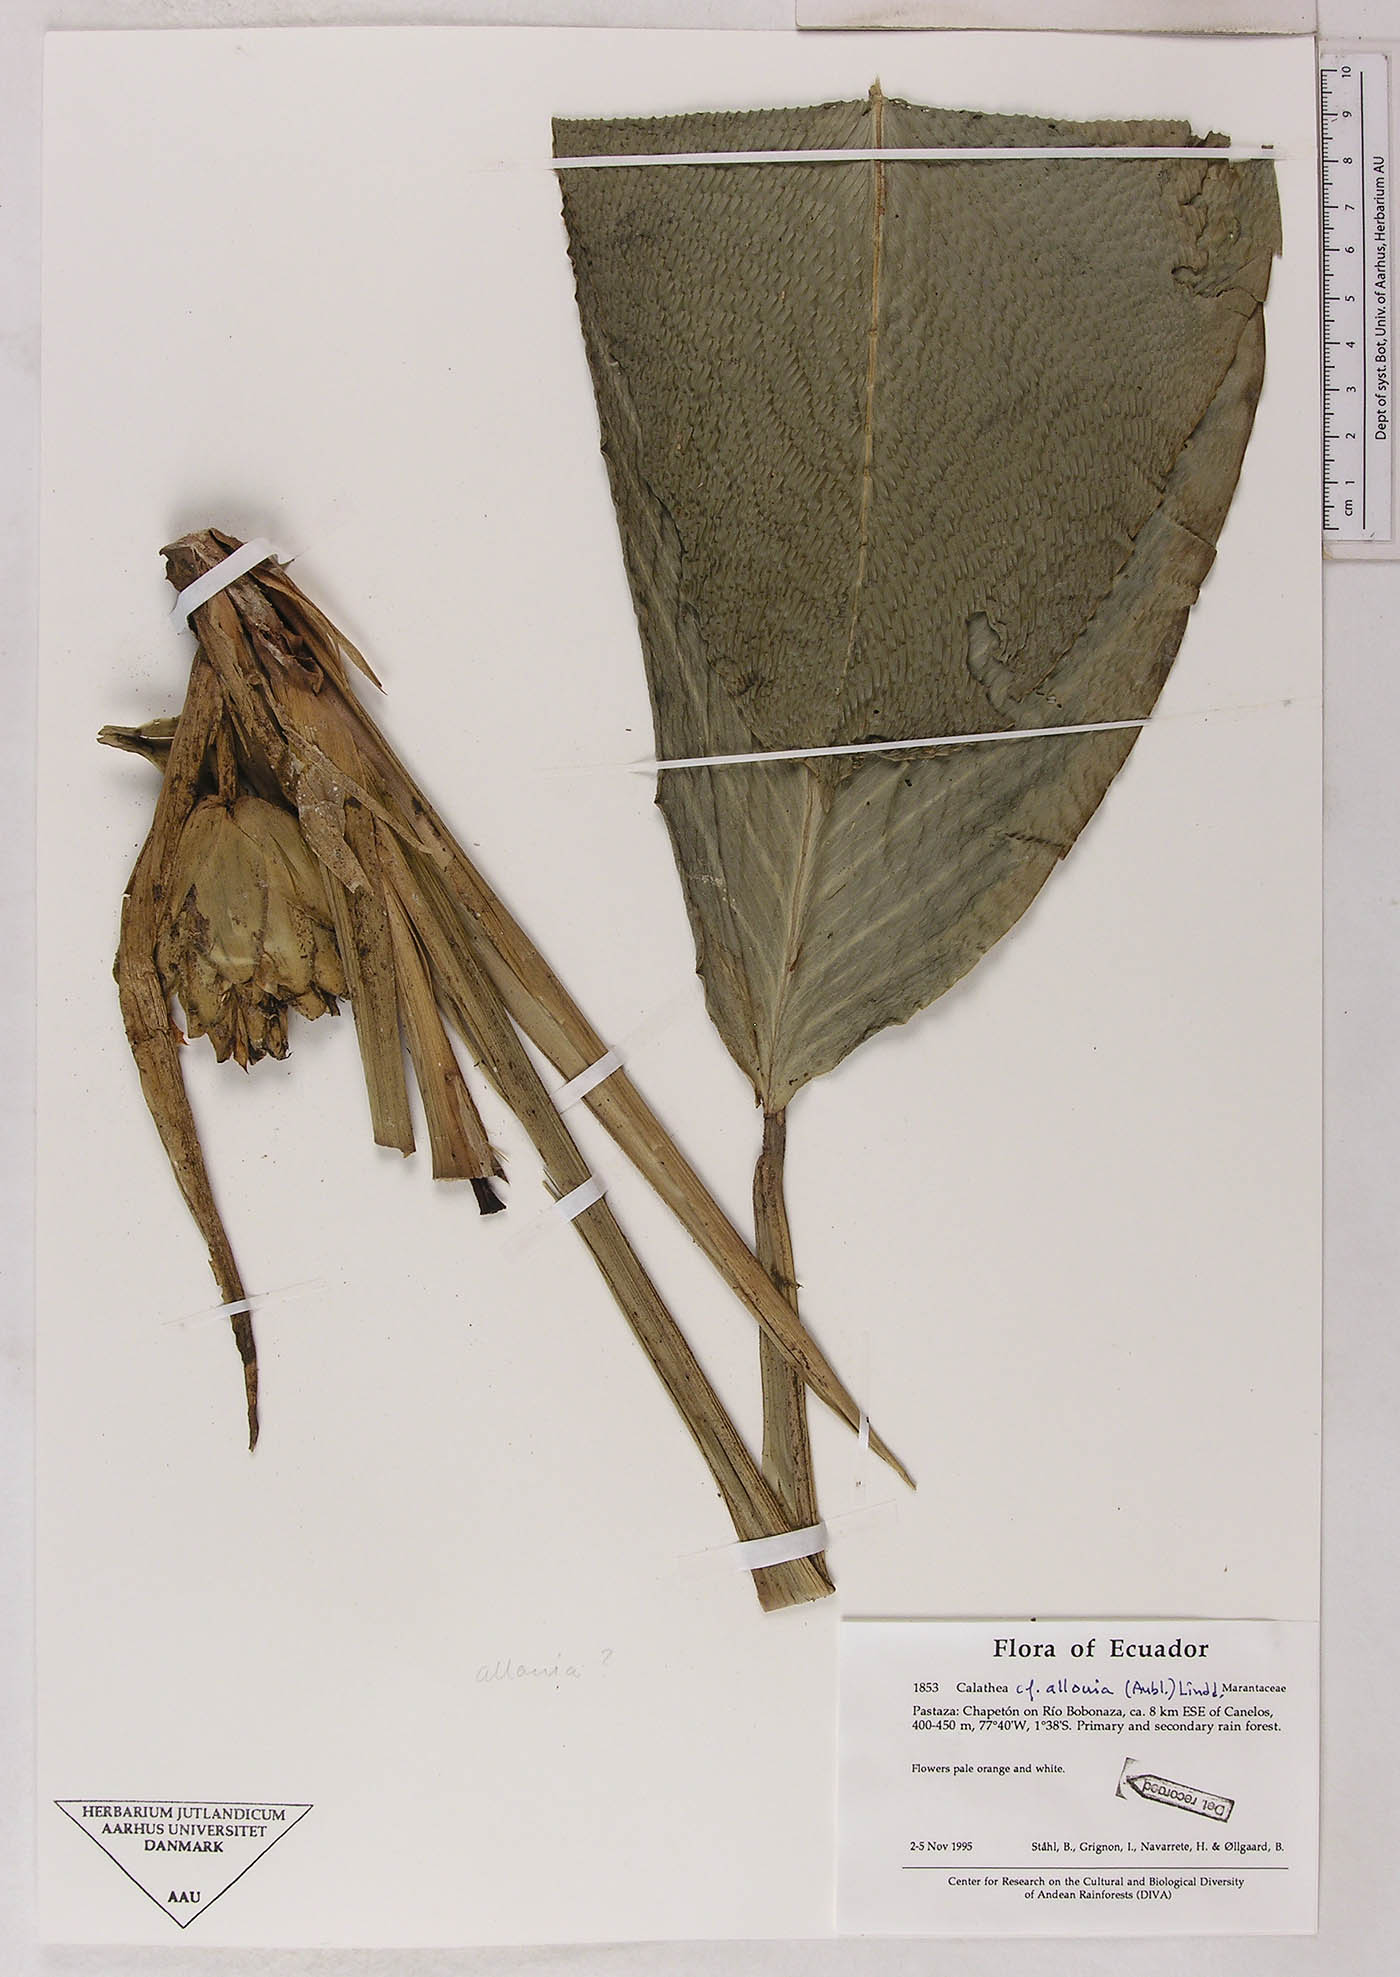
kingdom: Plantae
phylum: Tracheophyta
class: Liliopsida
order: Zingiberales
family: Marantaceae
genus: Goeppertia
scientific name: Goeppertia propinqua
